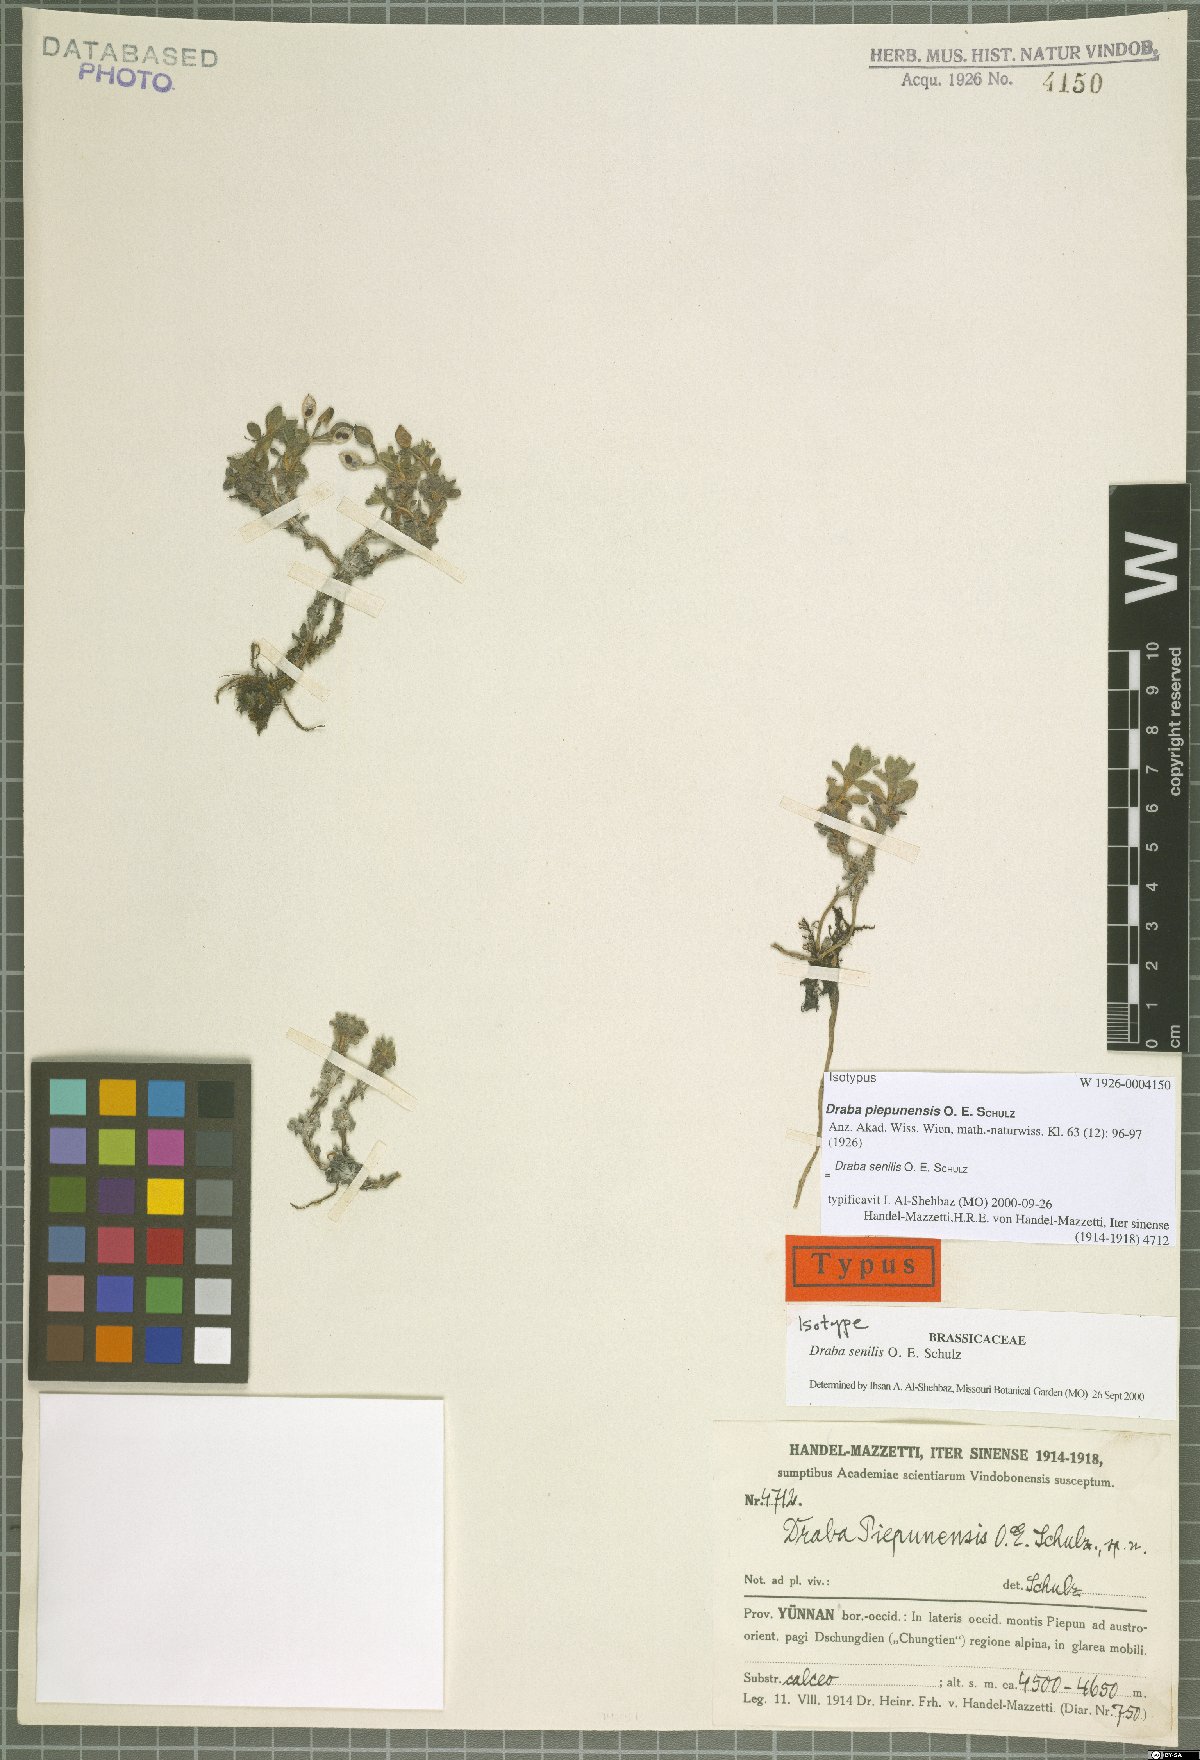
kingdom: Plantae
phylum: Tracheophyta
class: Magnoliopsida
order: Brassicales
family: Brassicaceae
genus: Draba
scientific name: Draba senilis
